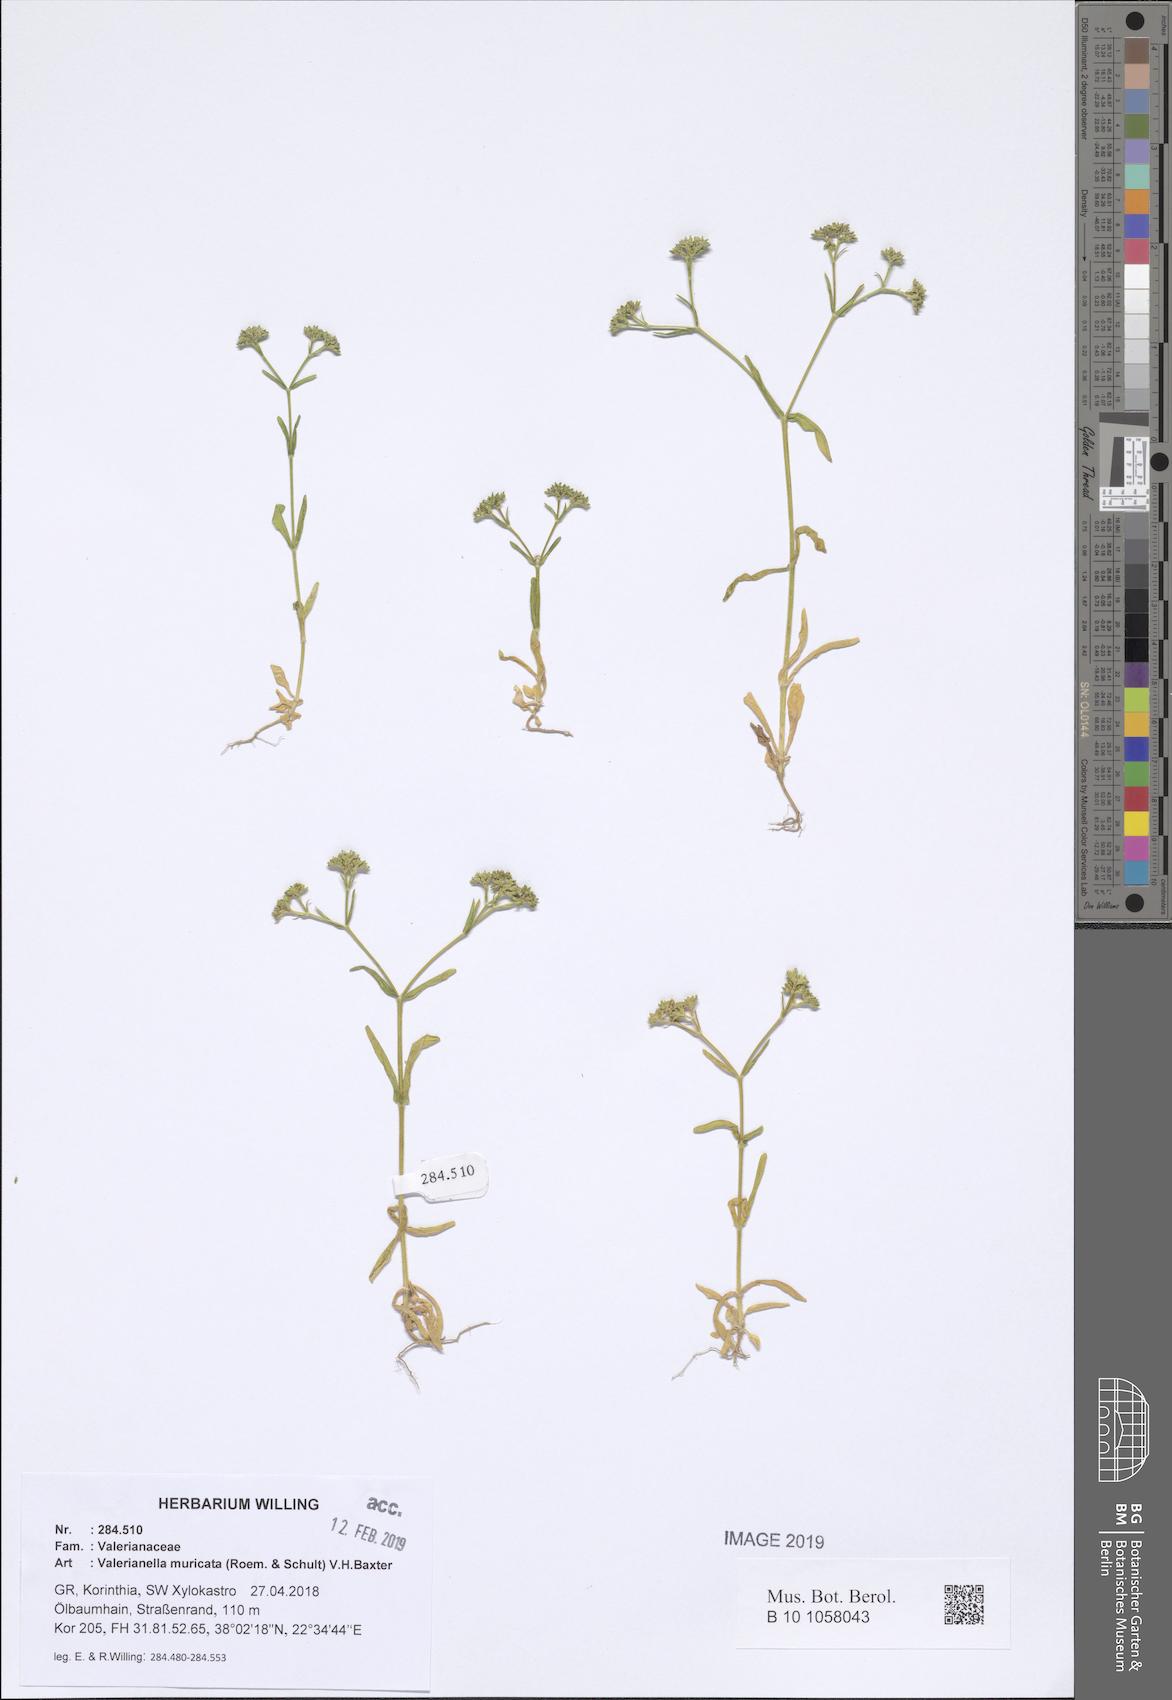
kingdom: Plantae
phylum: Tracheophyta
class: Magnoliopsida
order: Dipsacales
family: Caprifoliaceae
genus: Valerianella
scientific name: Valerianella eriocarpa
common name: Hairy-fruited cornsalad
